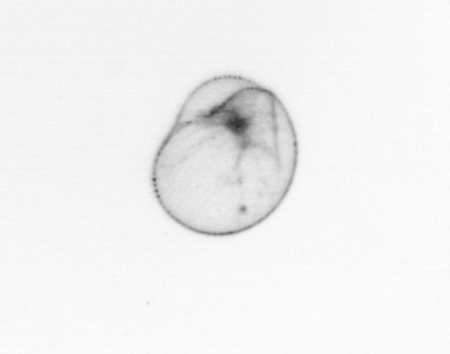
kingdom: Chromista
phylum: Myzozoa
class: Dinophyceae
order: Noctilucales
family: Noctilucaceae
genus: Noctiluca
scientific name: Noctiluca scintillans
